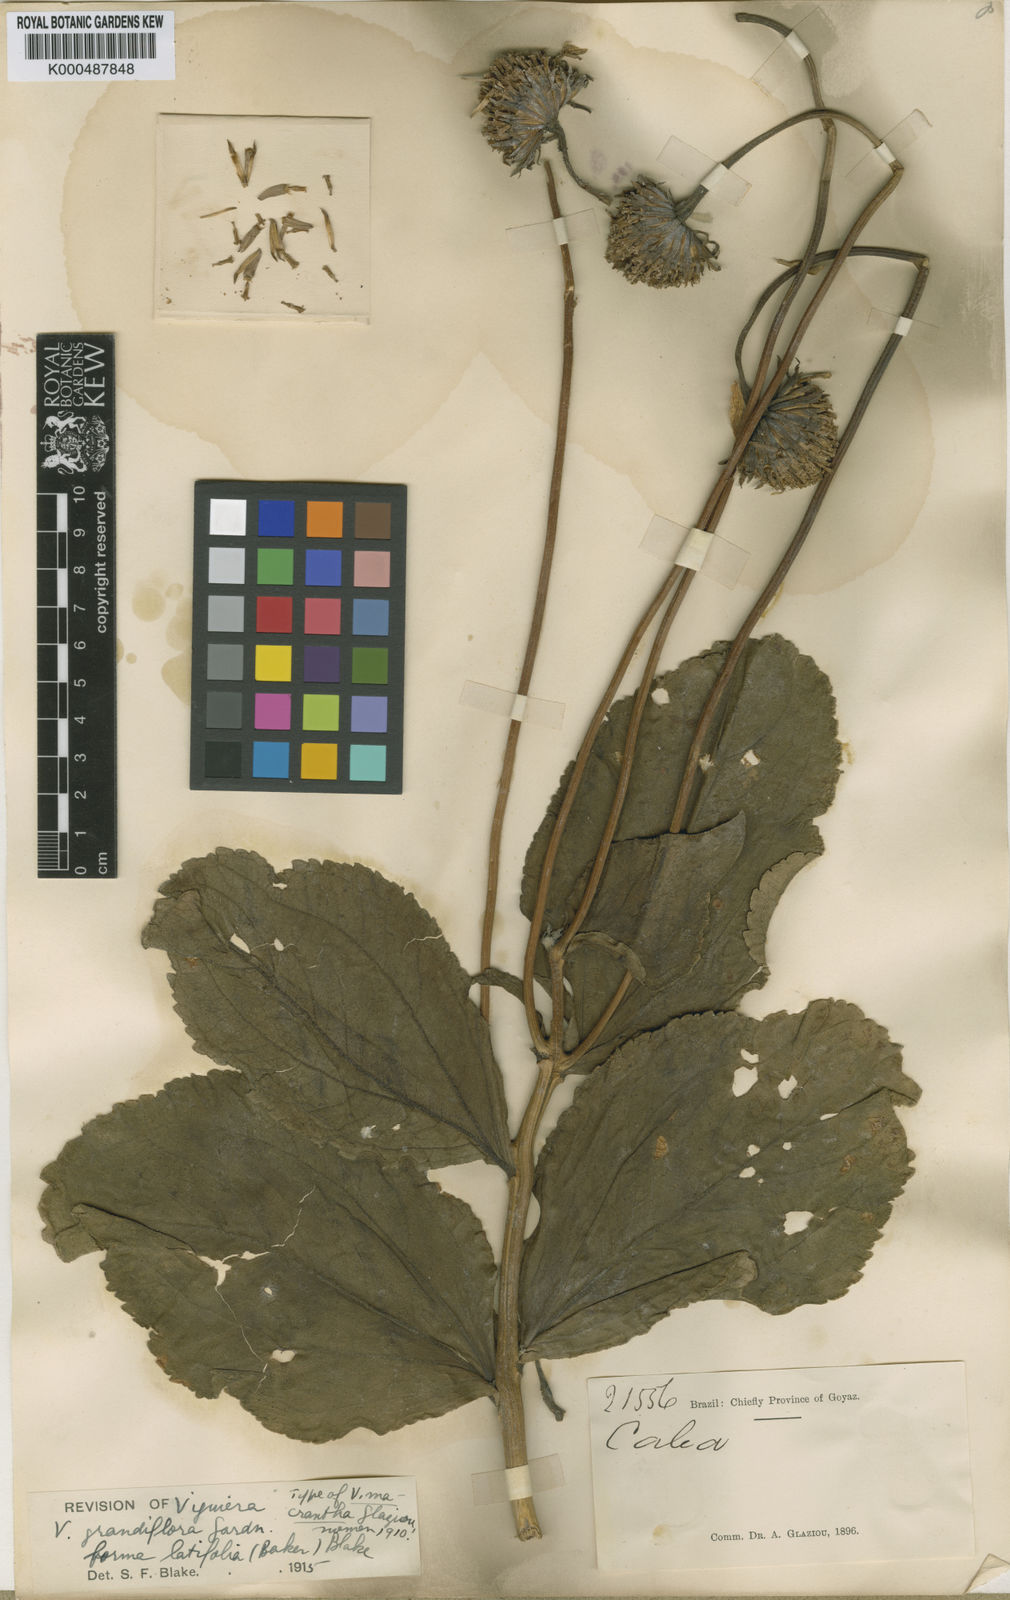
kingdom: Plantae
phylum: Tracheophyta
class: Magnoliopsida
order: Asterales
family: Asteraceae
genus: Aldama
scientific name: Aldama grandiflora
